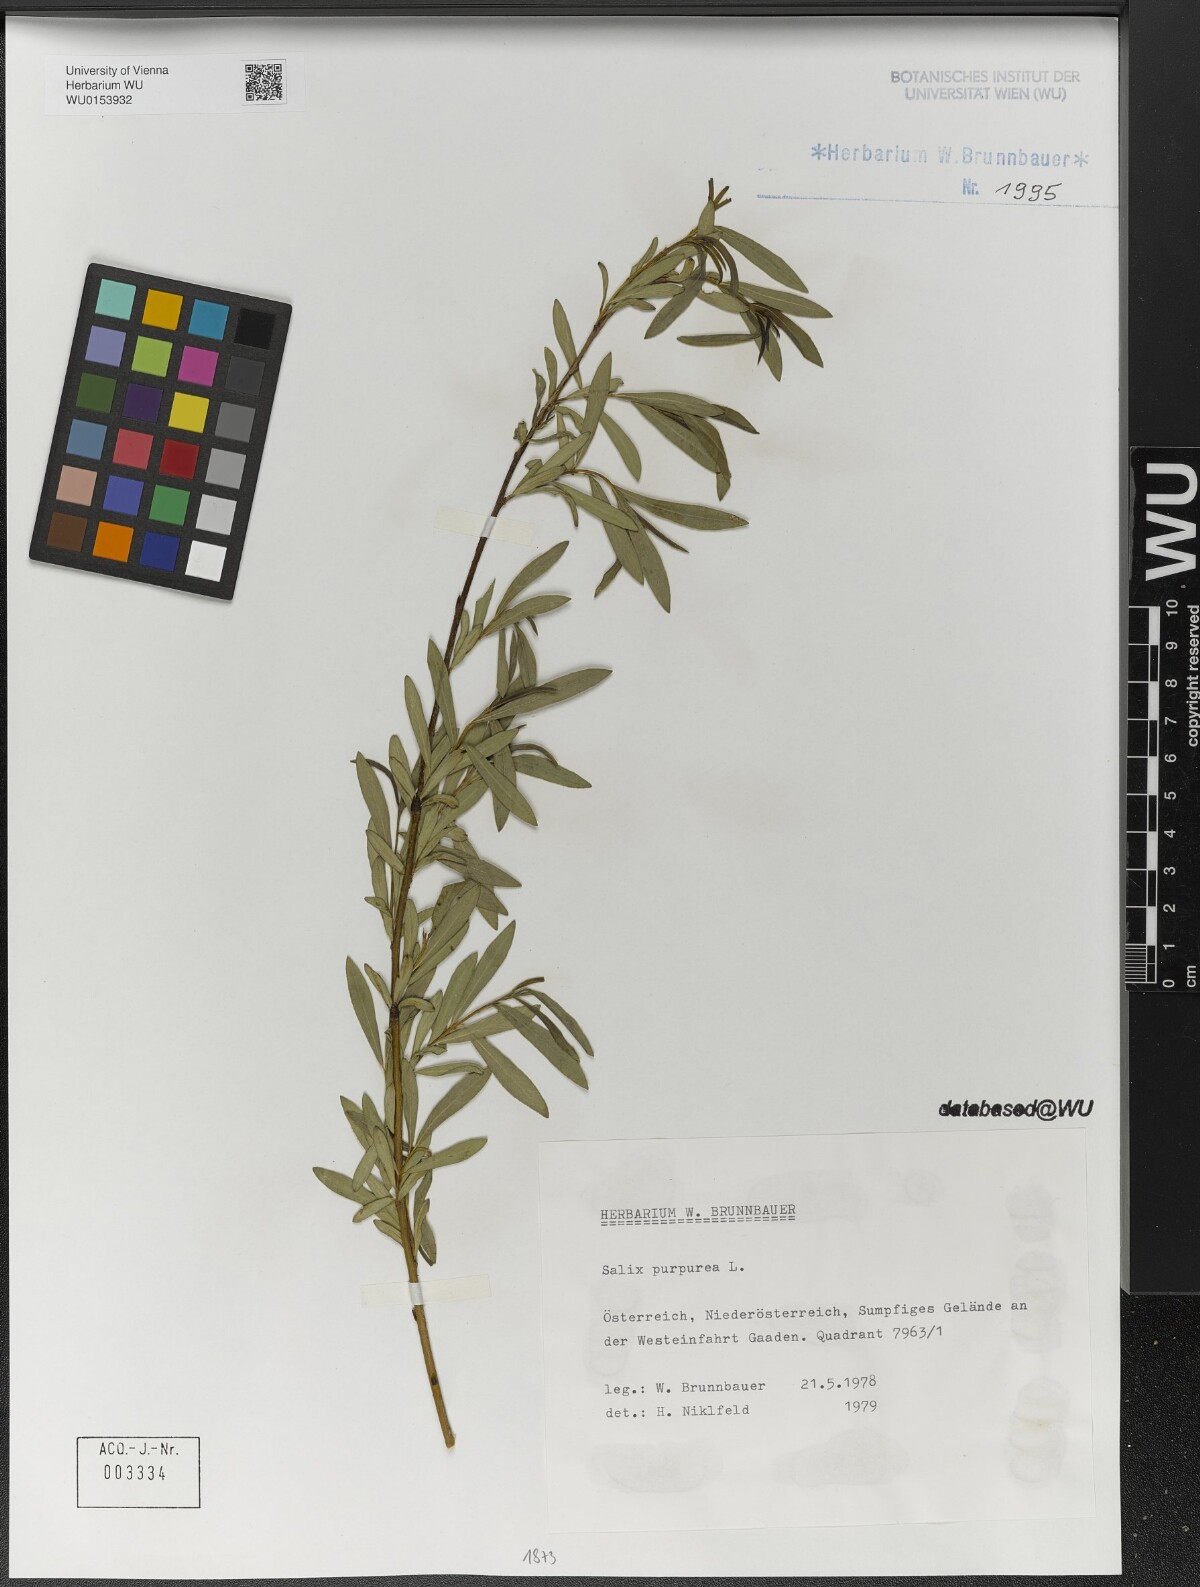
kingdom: Plantae
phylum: Tracheophyta
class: Magnoliopsida
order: Malpighiales
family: Salicaceae
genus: Salix
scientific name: Salix purpurea
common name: Purple willow
